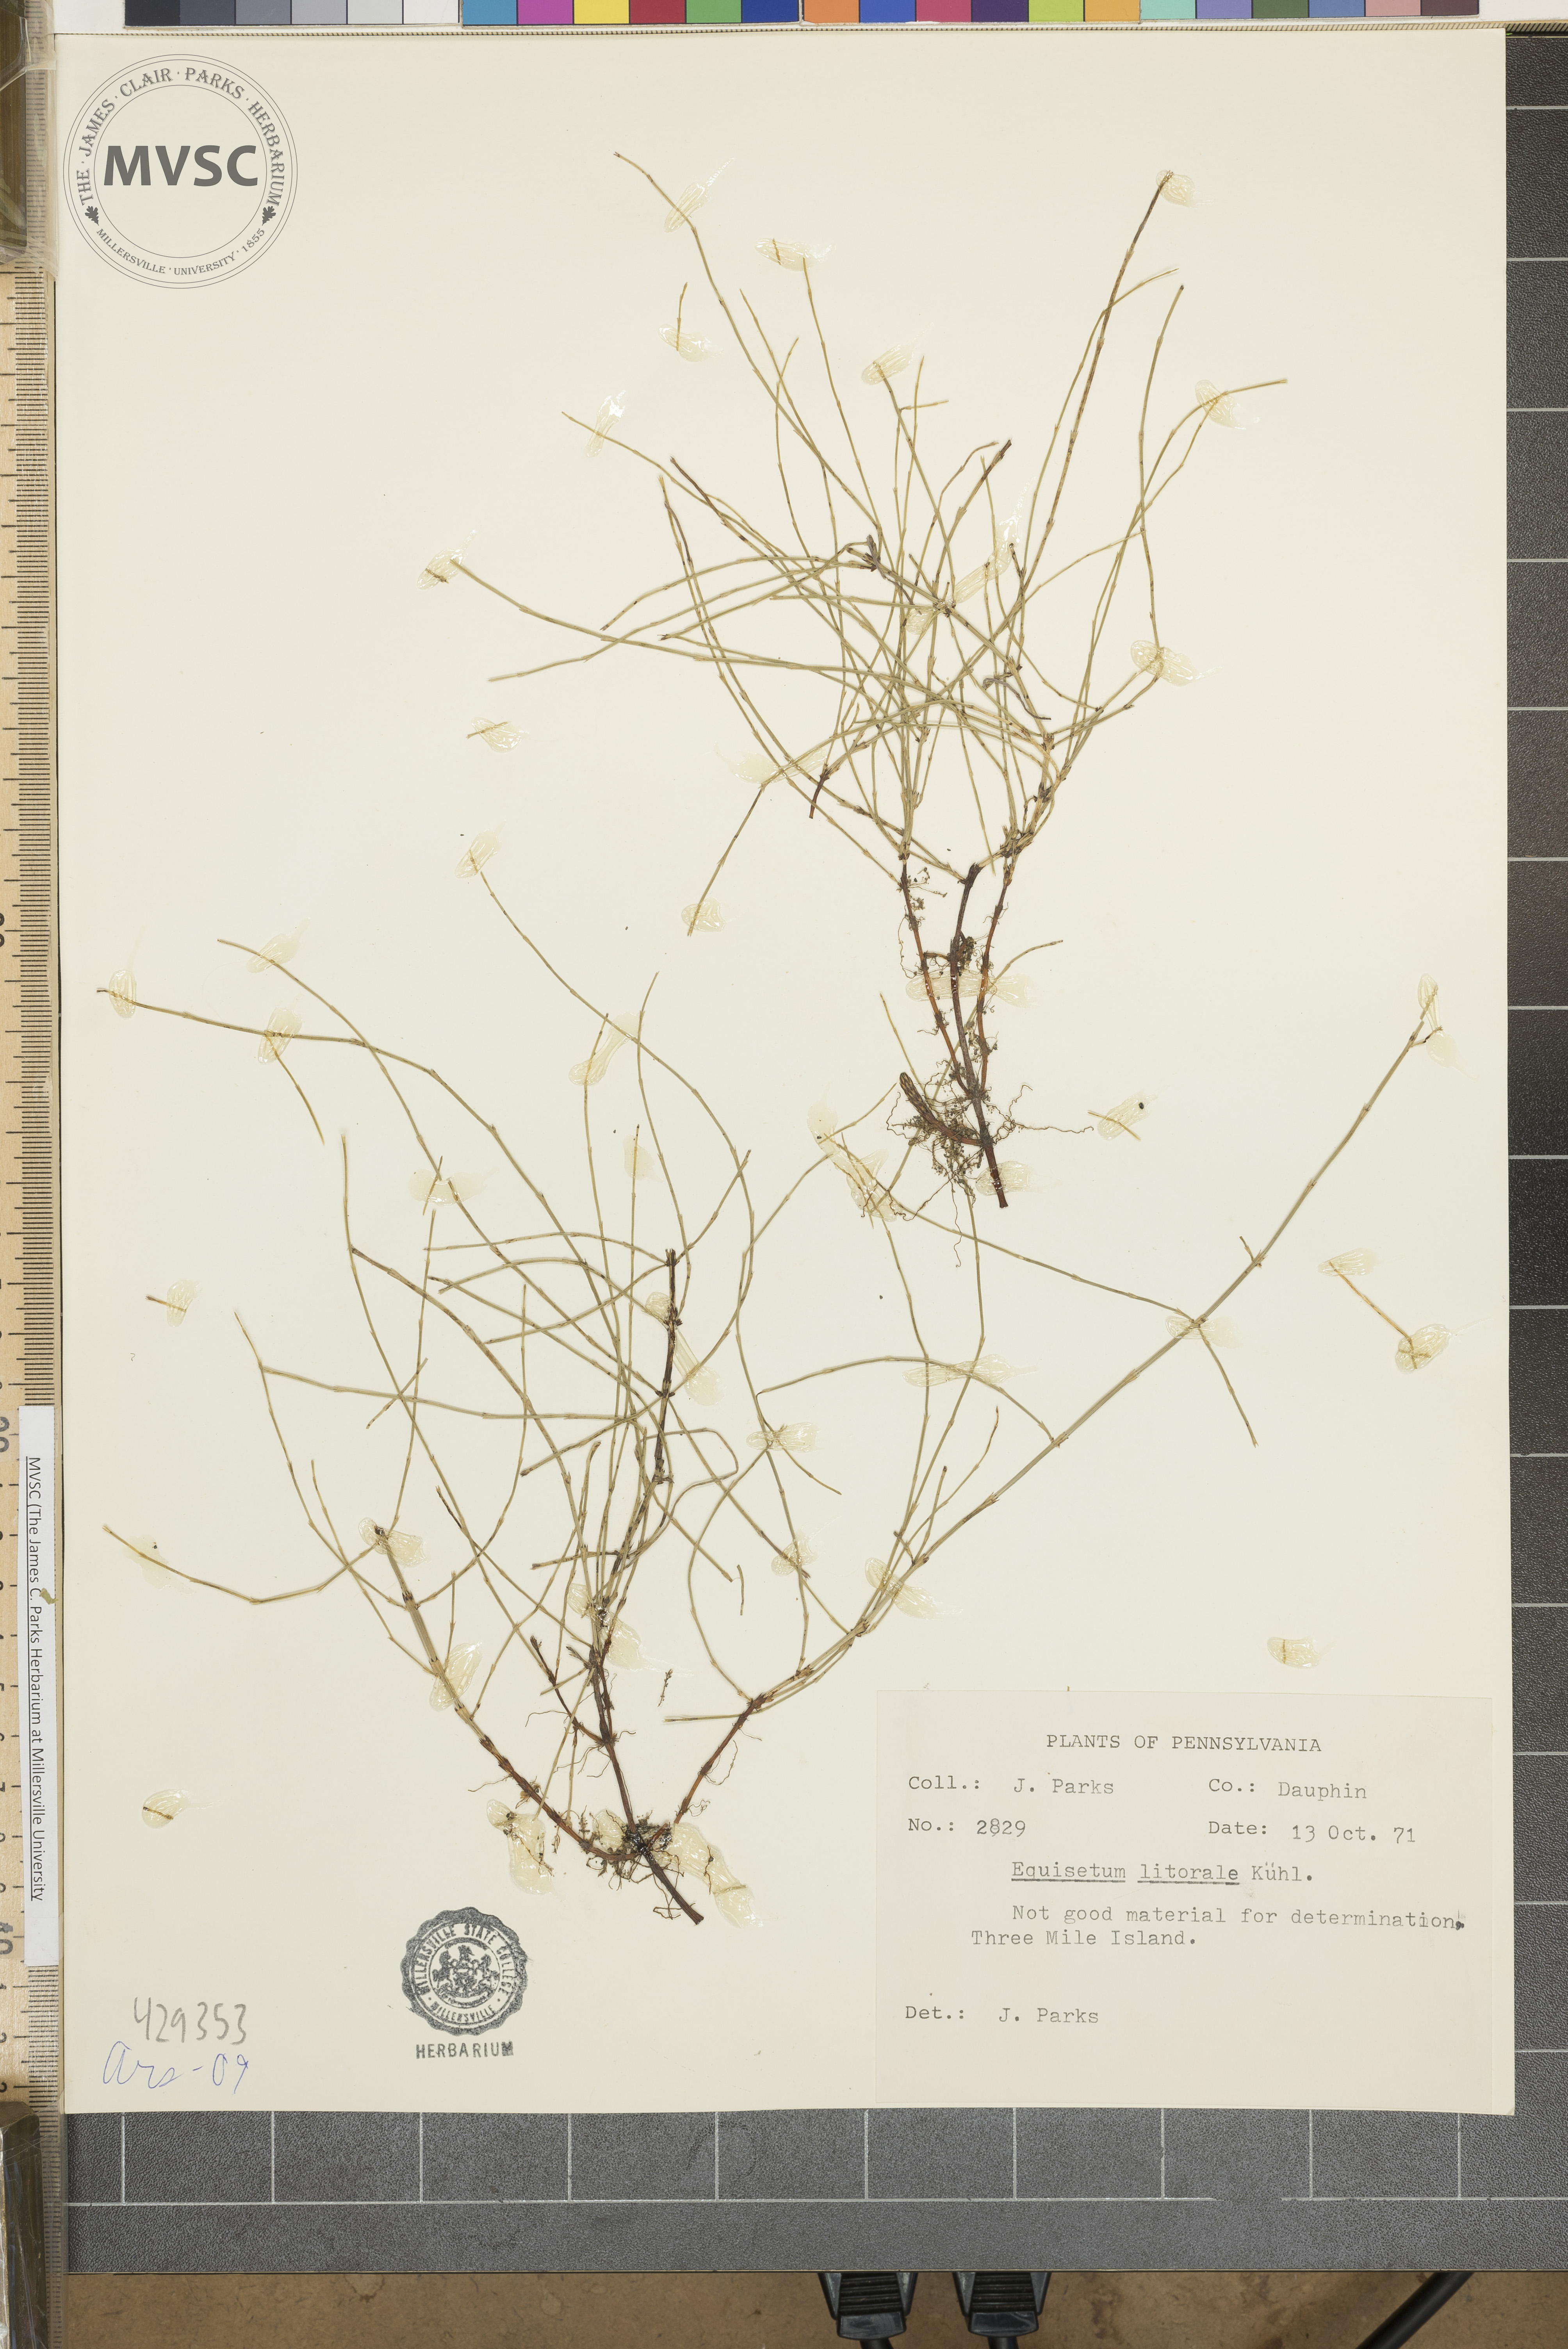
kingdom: Plantae
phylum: Tracheophyta
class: Polypodiopsida
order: Equisetales
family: Equisetaceae
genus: Equisetum
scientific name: Equisetum litorale
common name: Littoral horsetail
